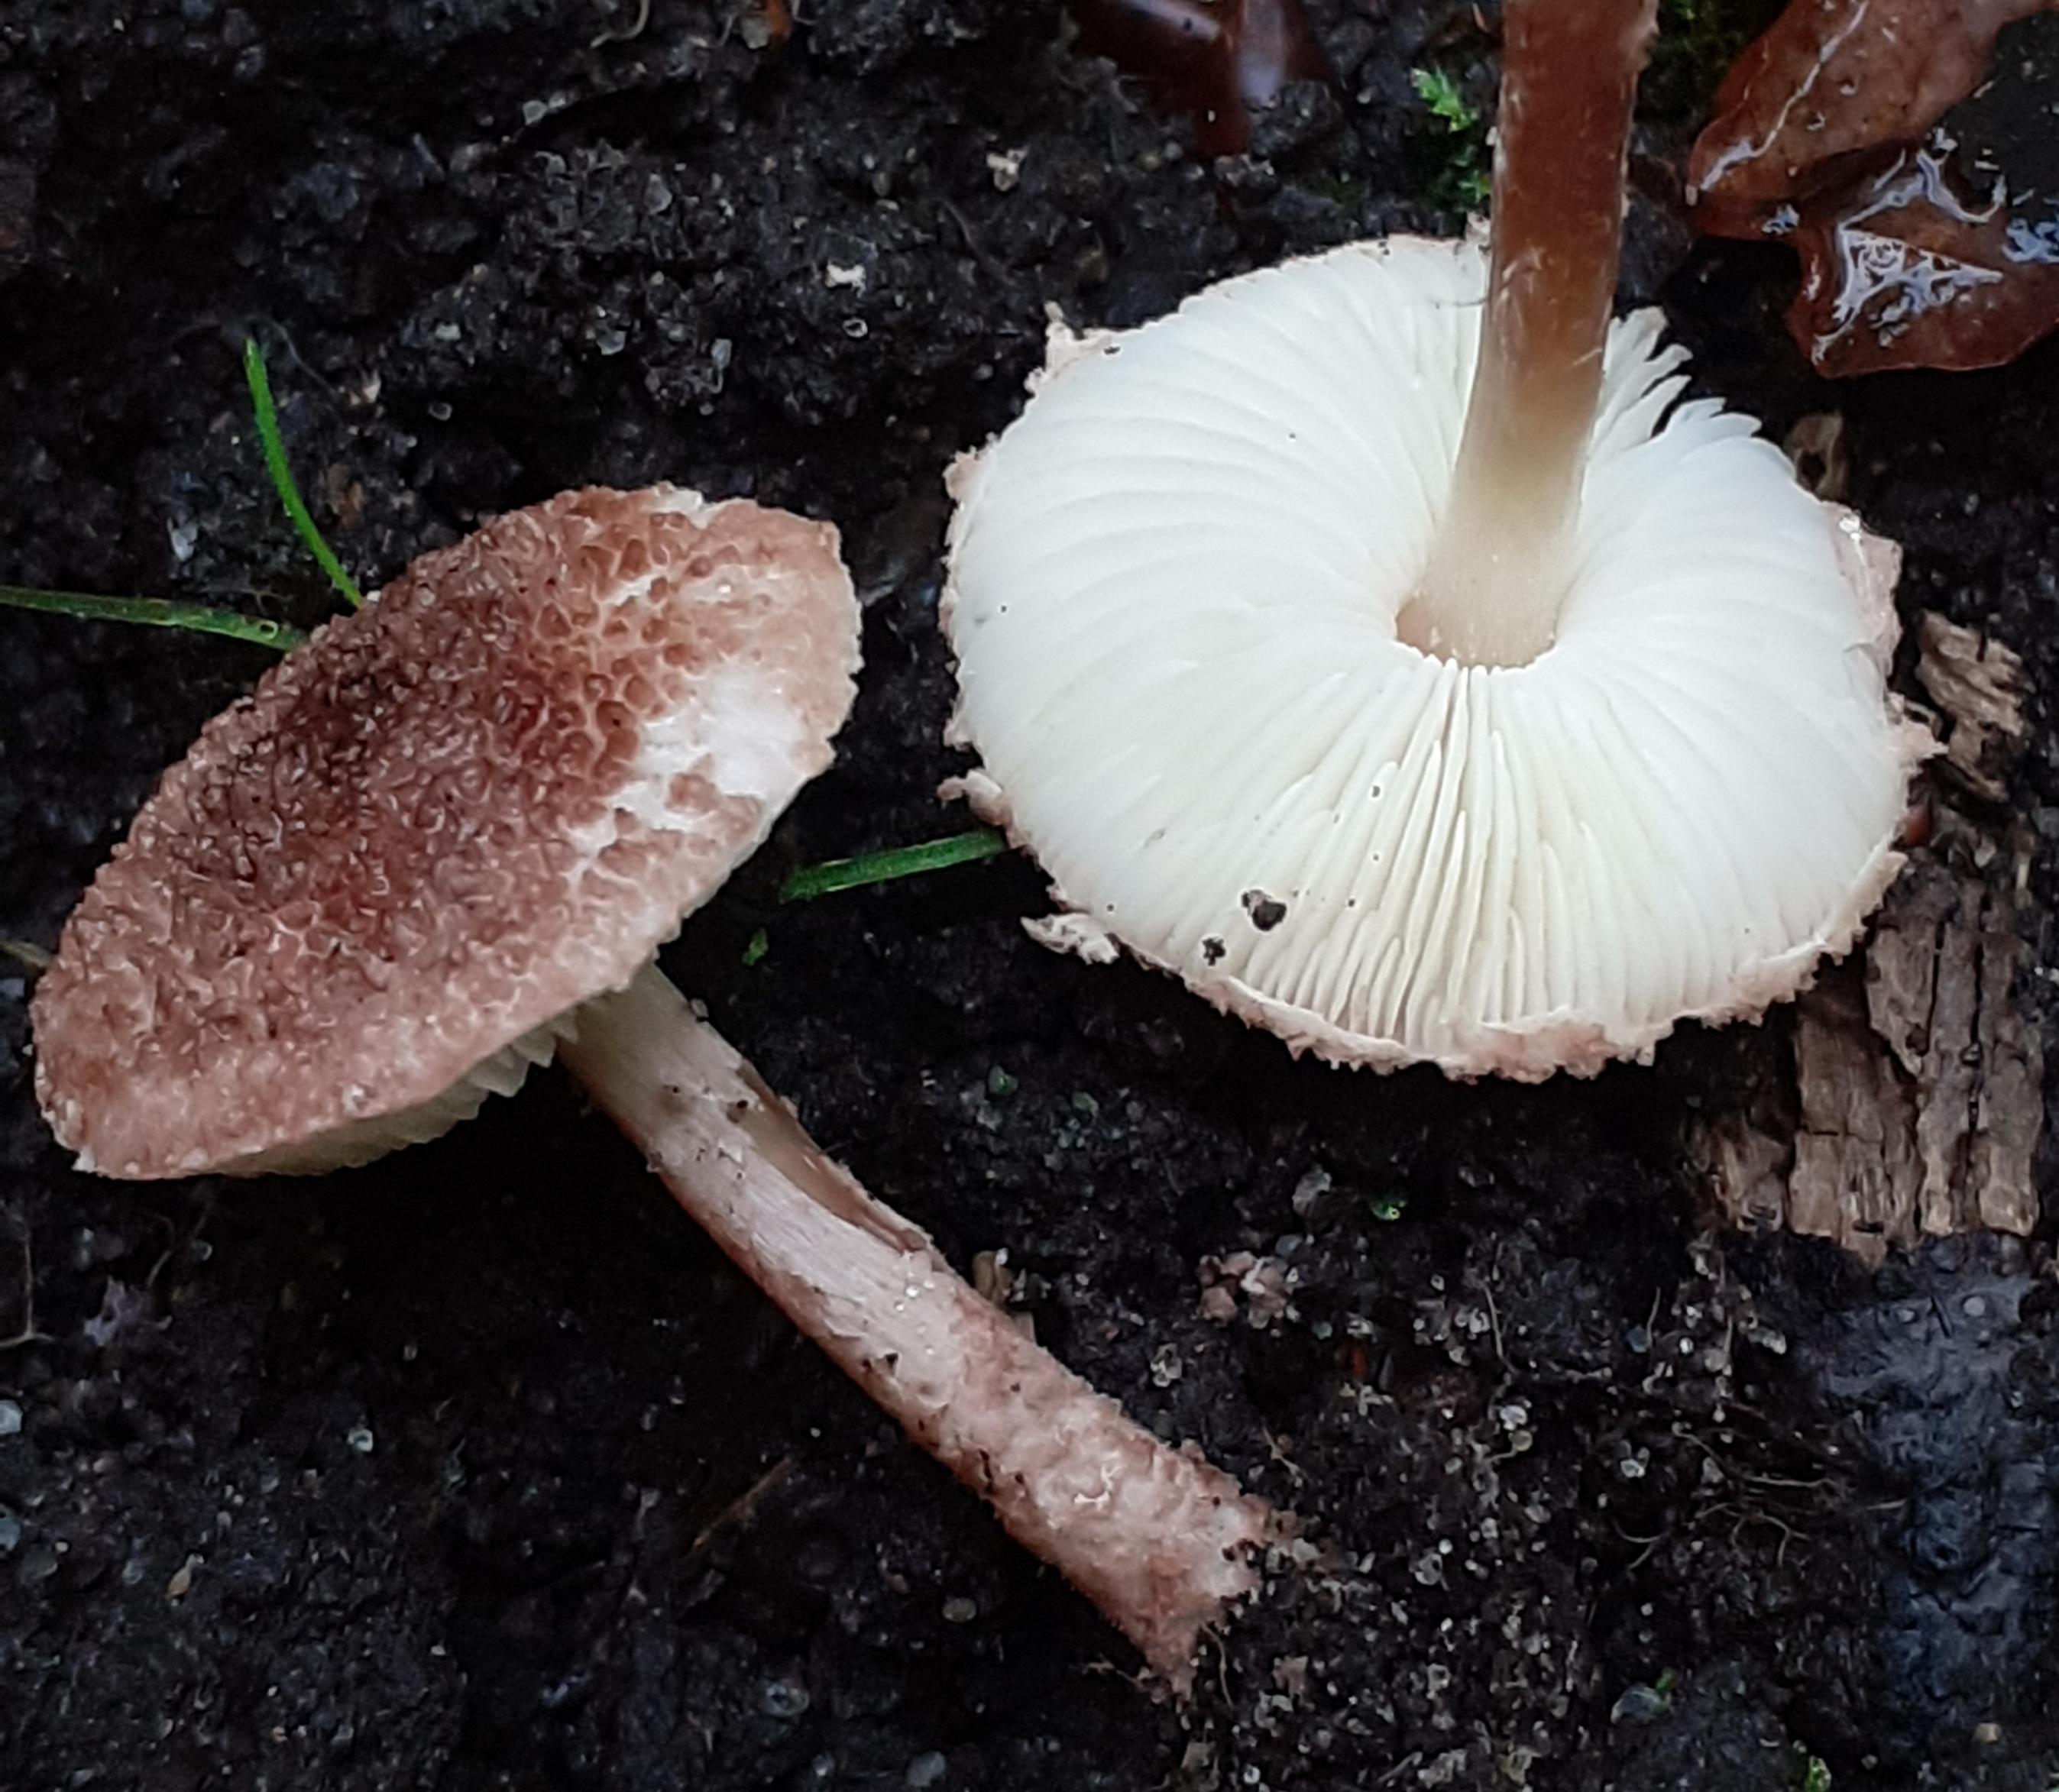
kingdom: Fungi
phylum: Basidiomycota
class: Agaricomycetes
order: Agaricales
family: Agaricaceae
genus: Lepiota
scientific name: Lepiota subincarnata
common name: kødfarvet parasolhat
